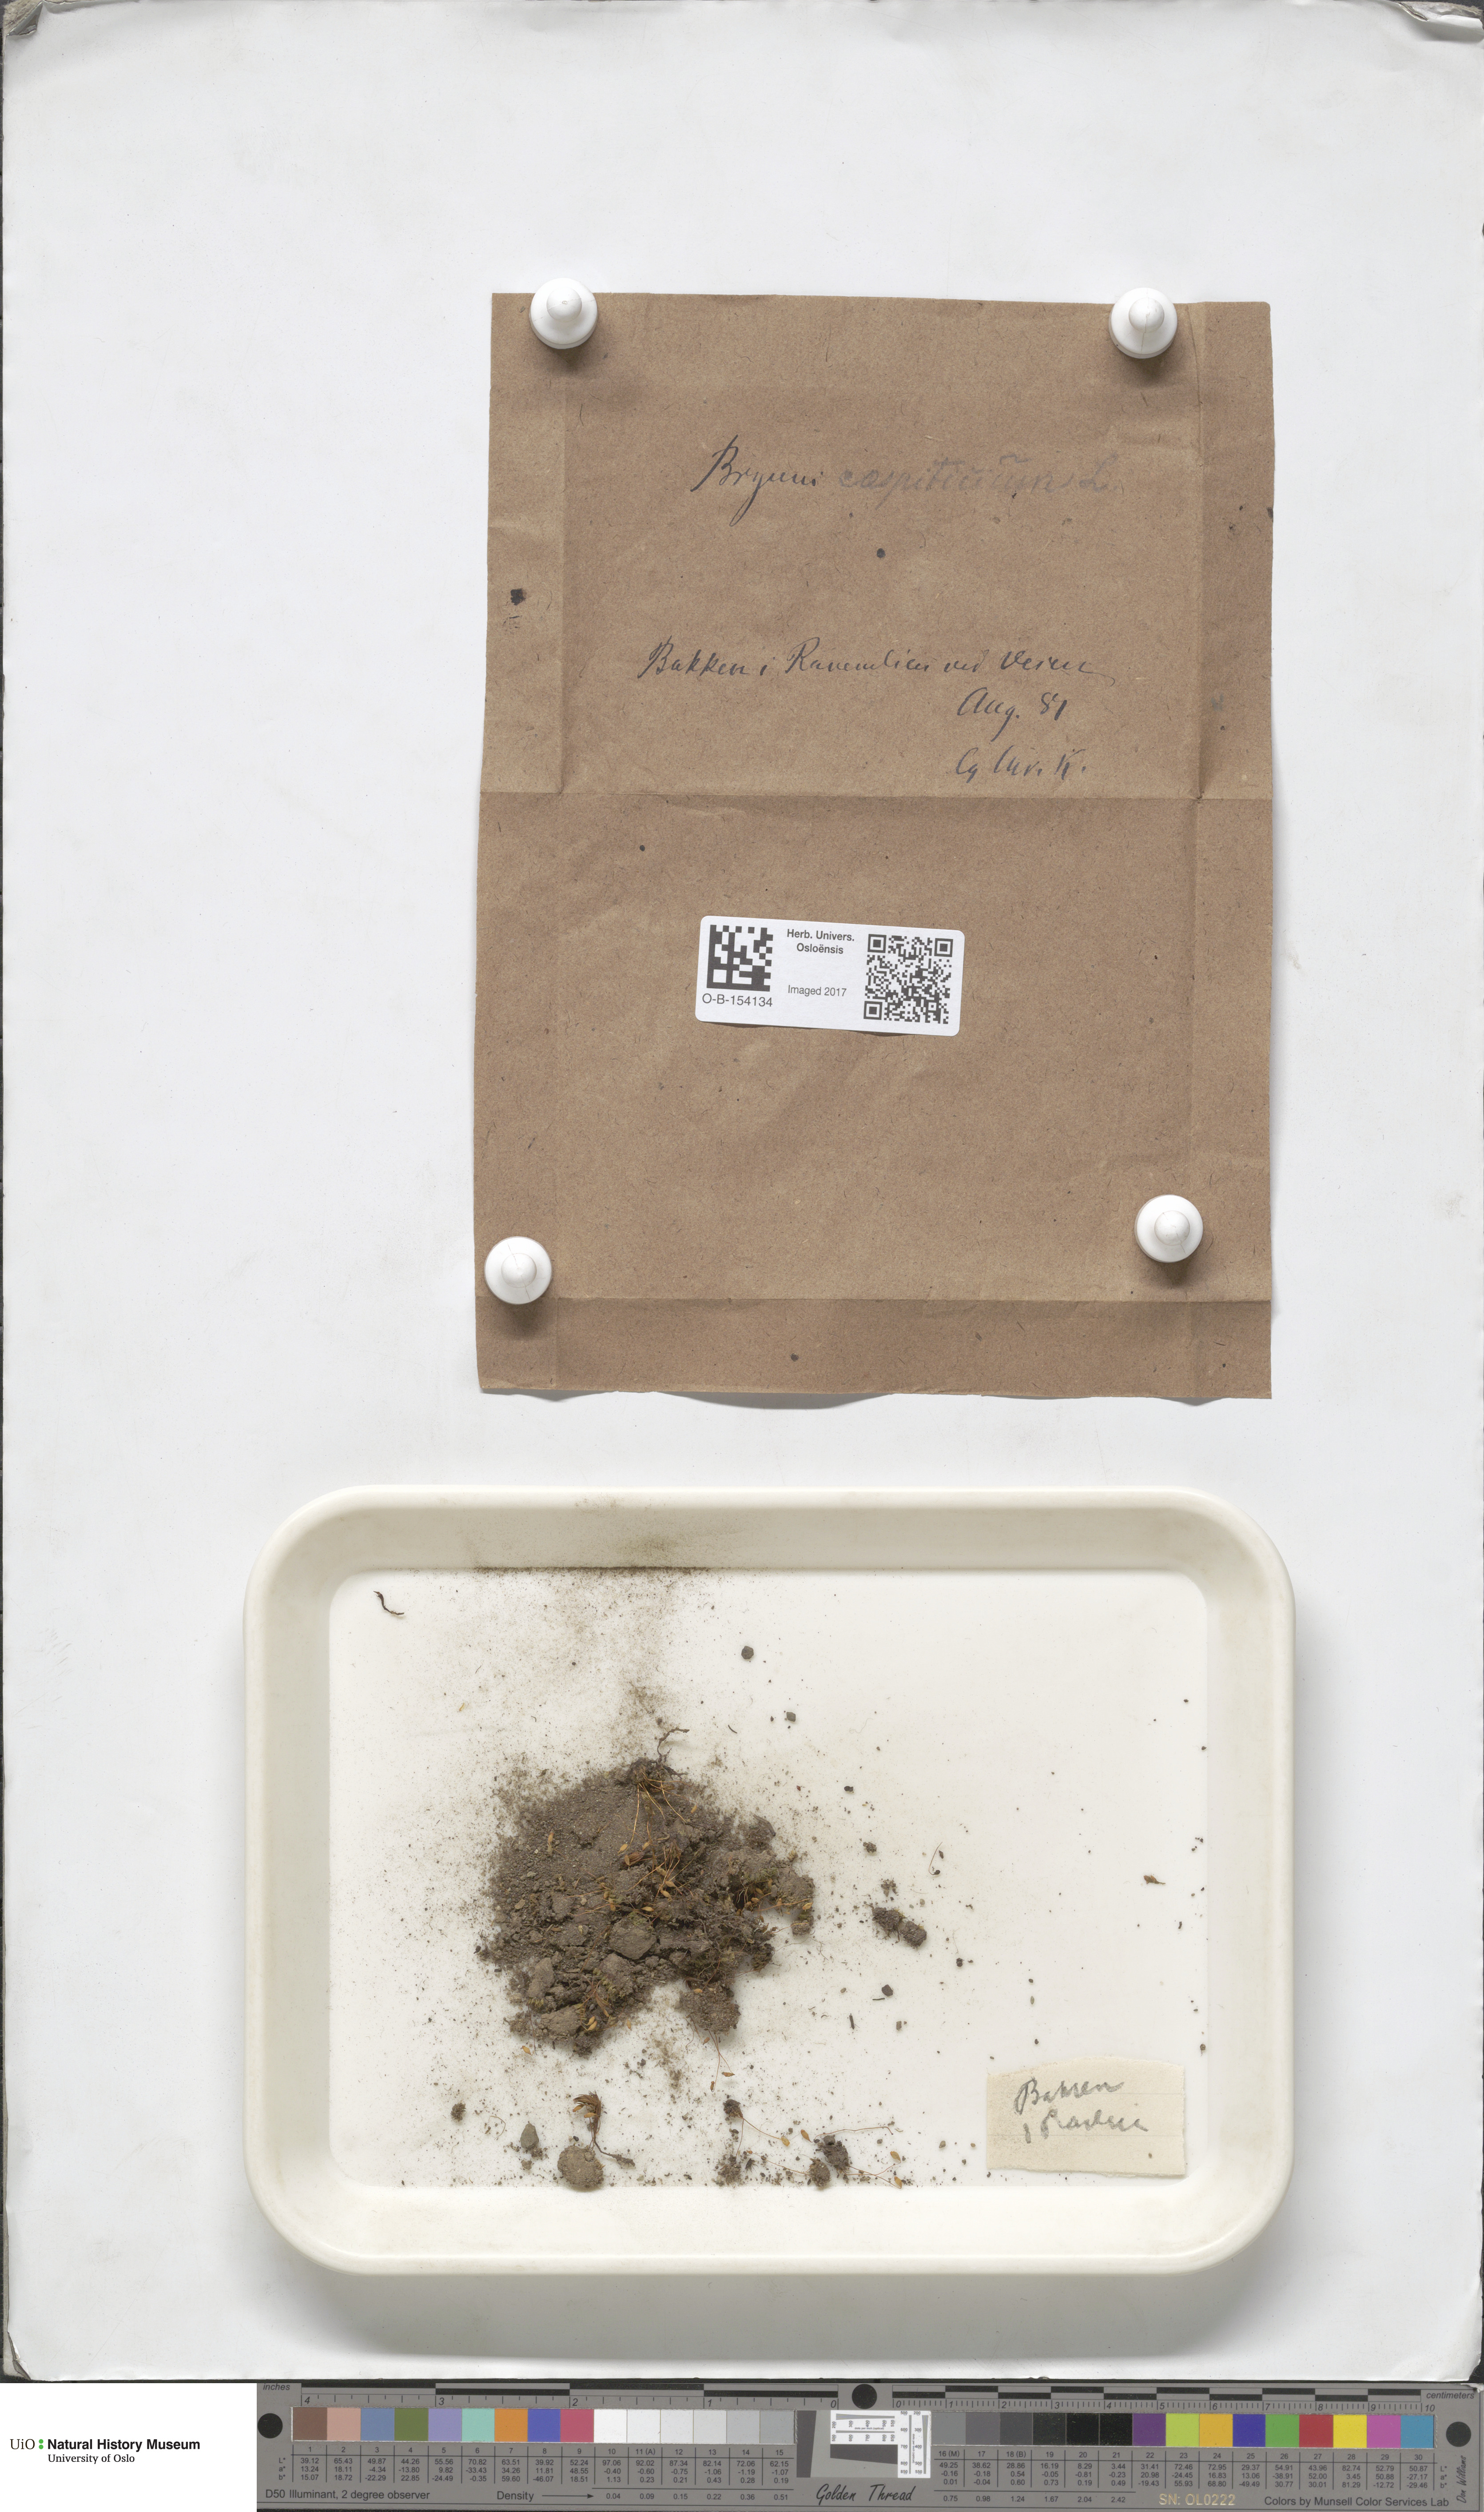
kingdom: Plantae
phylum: Bryophyta
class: Bryopsida
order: Bryales
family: Bryaceae
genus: Gemmabryum
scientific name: Gemmabryum caespiticium
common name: Handbell moss
